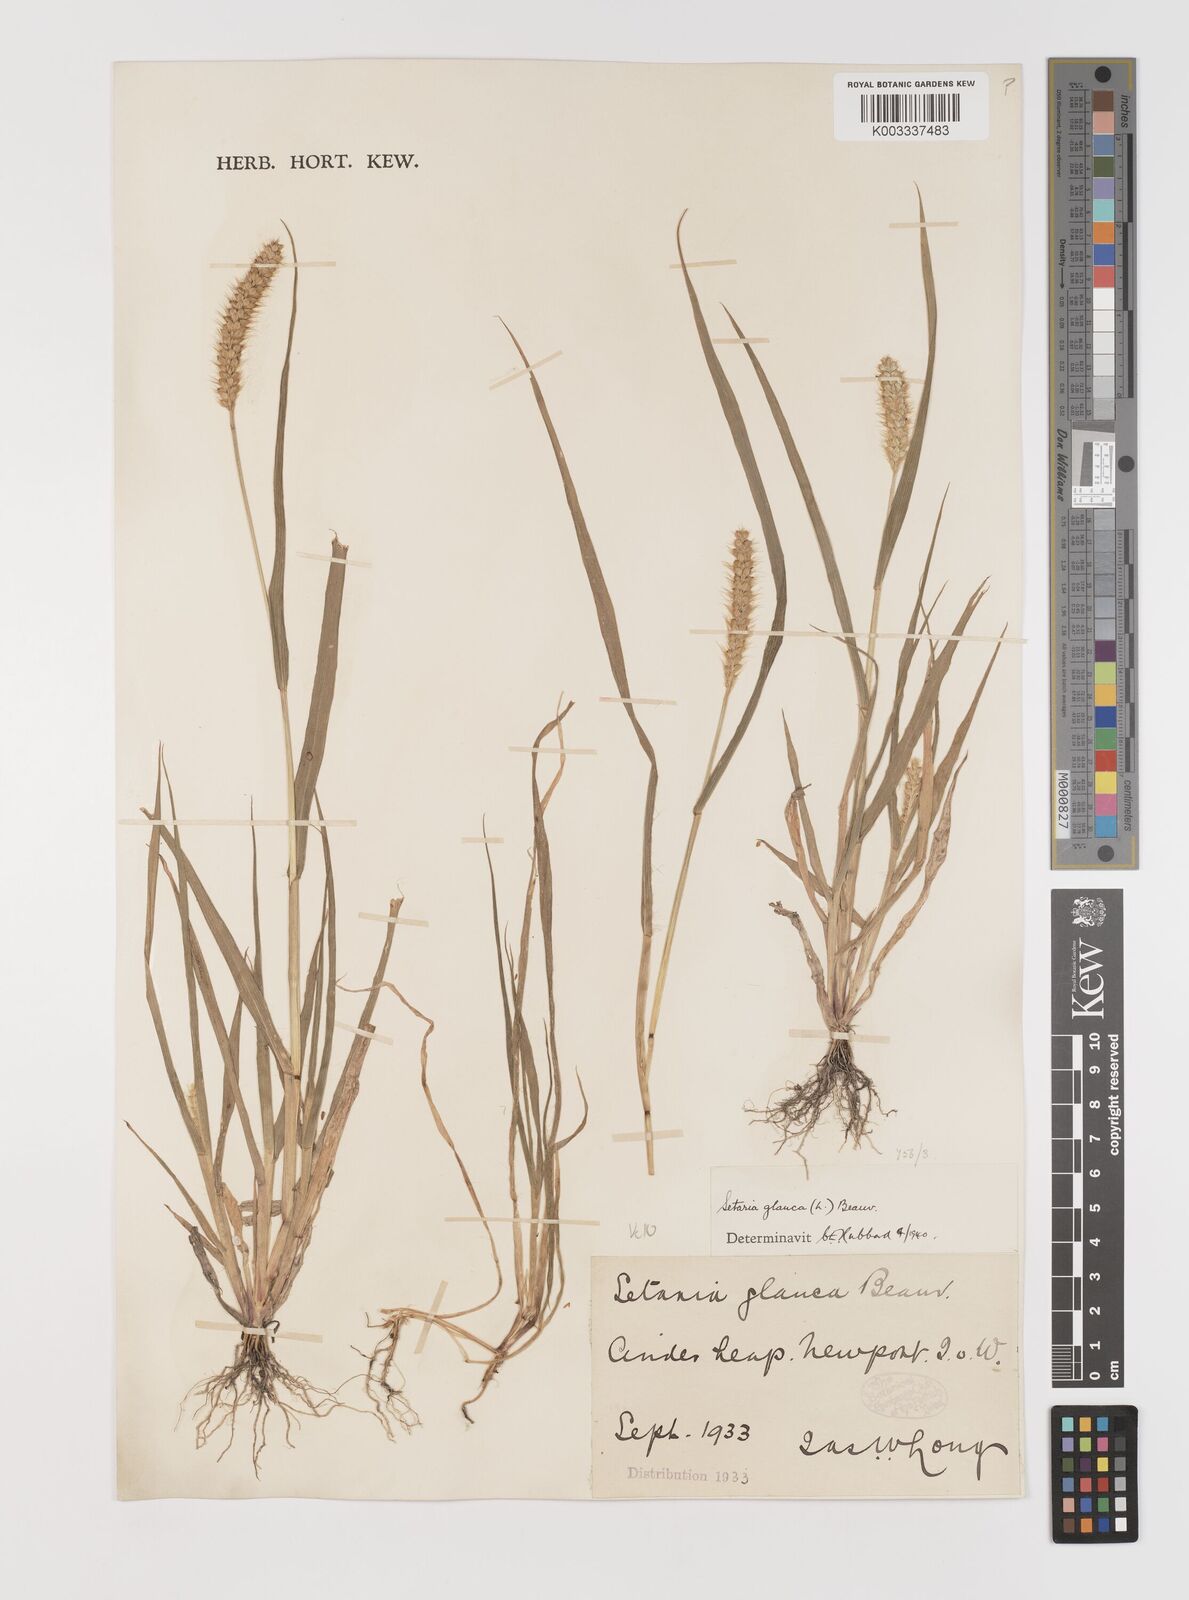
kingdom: Plantae
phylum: Tracheophyta
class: Liliopsida
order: Poales
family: Poaceae
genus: Setaria
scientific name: Setaria pumila
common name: Yellow bristle-grass
